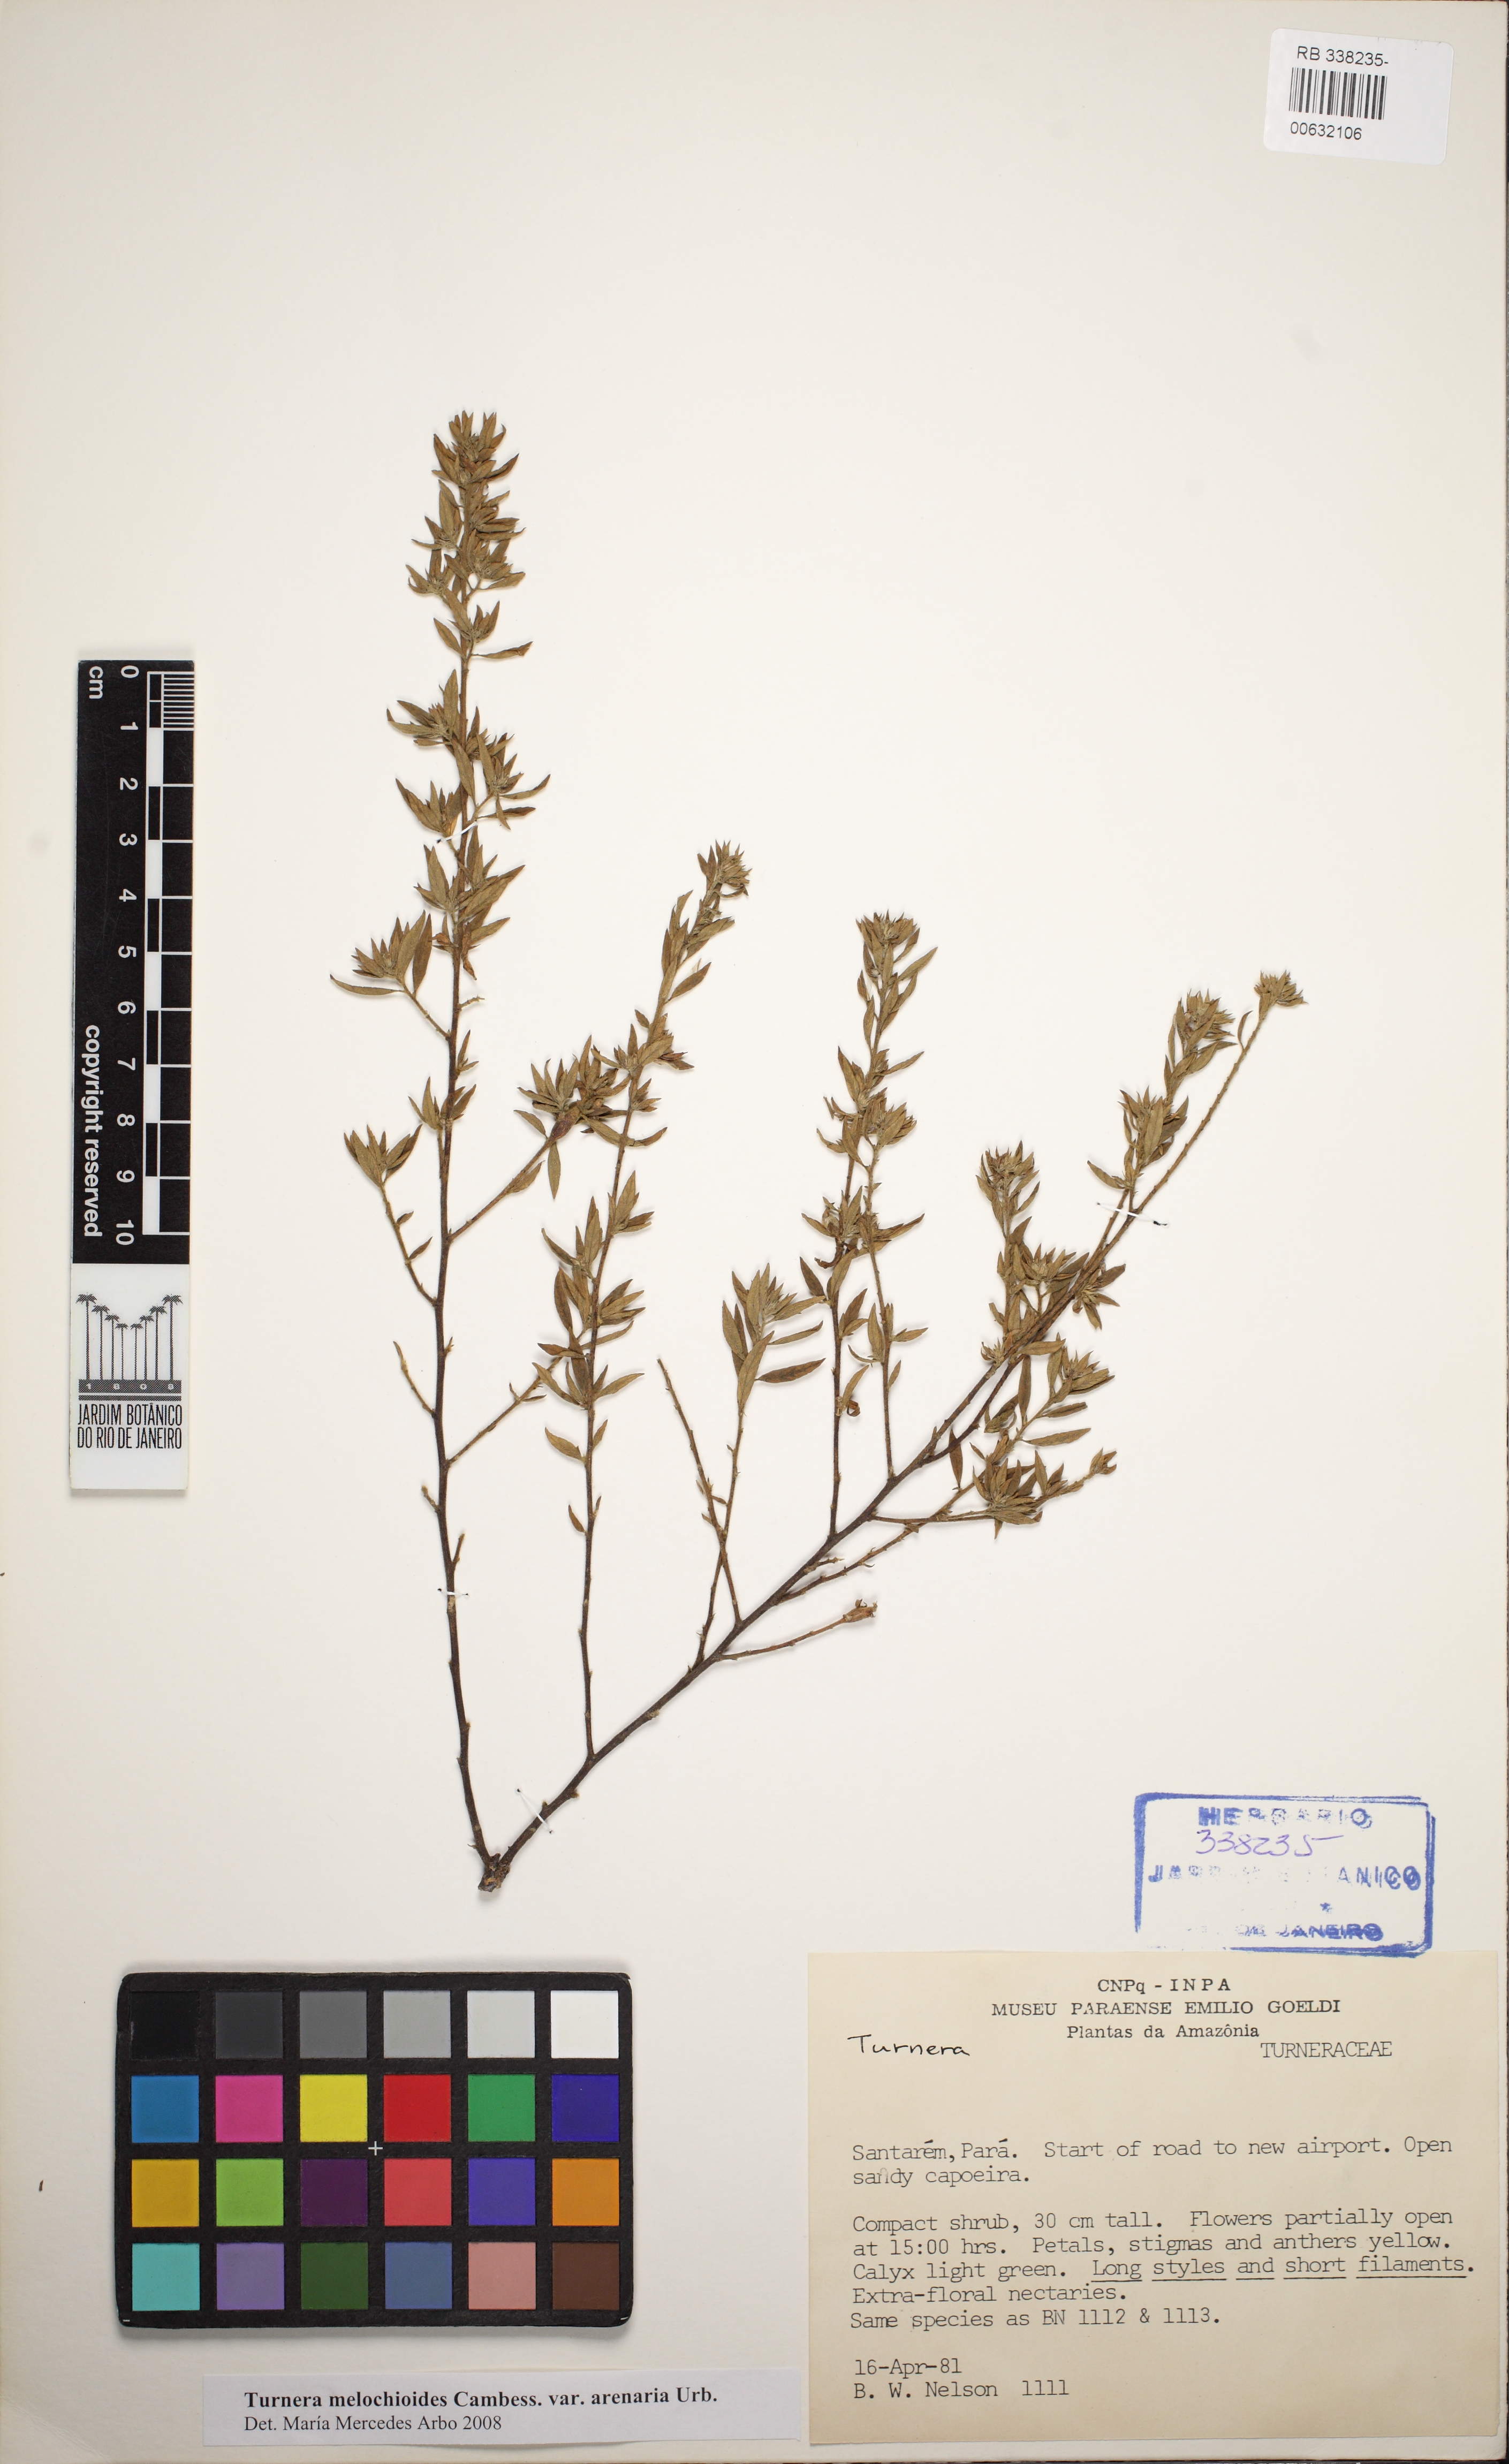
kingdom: Plantae
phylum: Tracheophyta
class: Magnoliopsida
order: Malpighiales
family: Turneraceae
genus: Turnera
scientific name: Turnera melochioides
